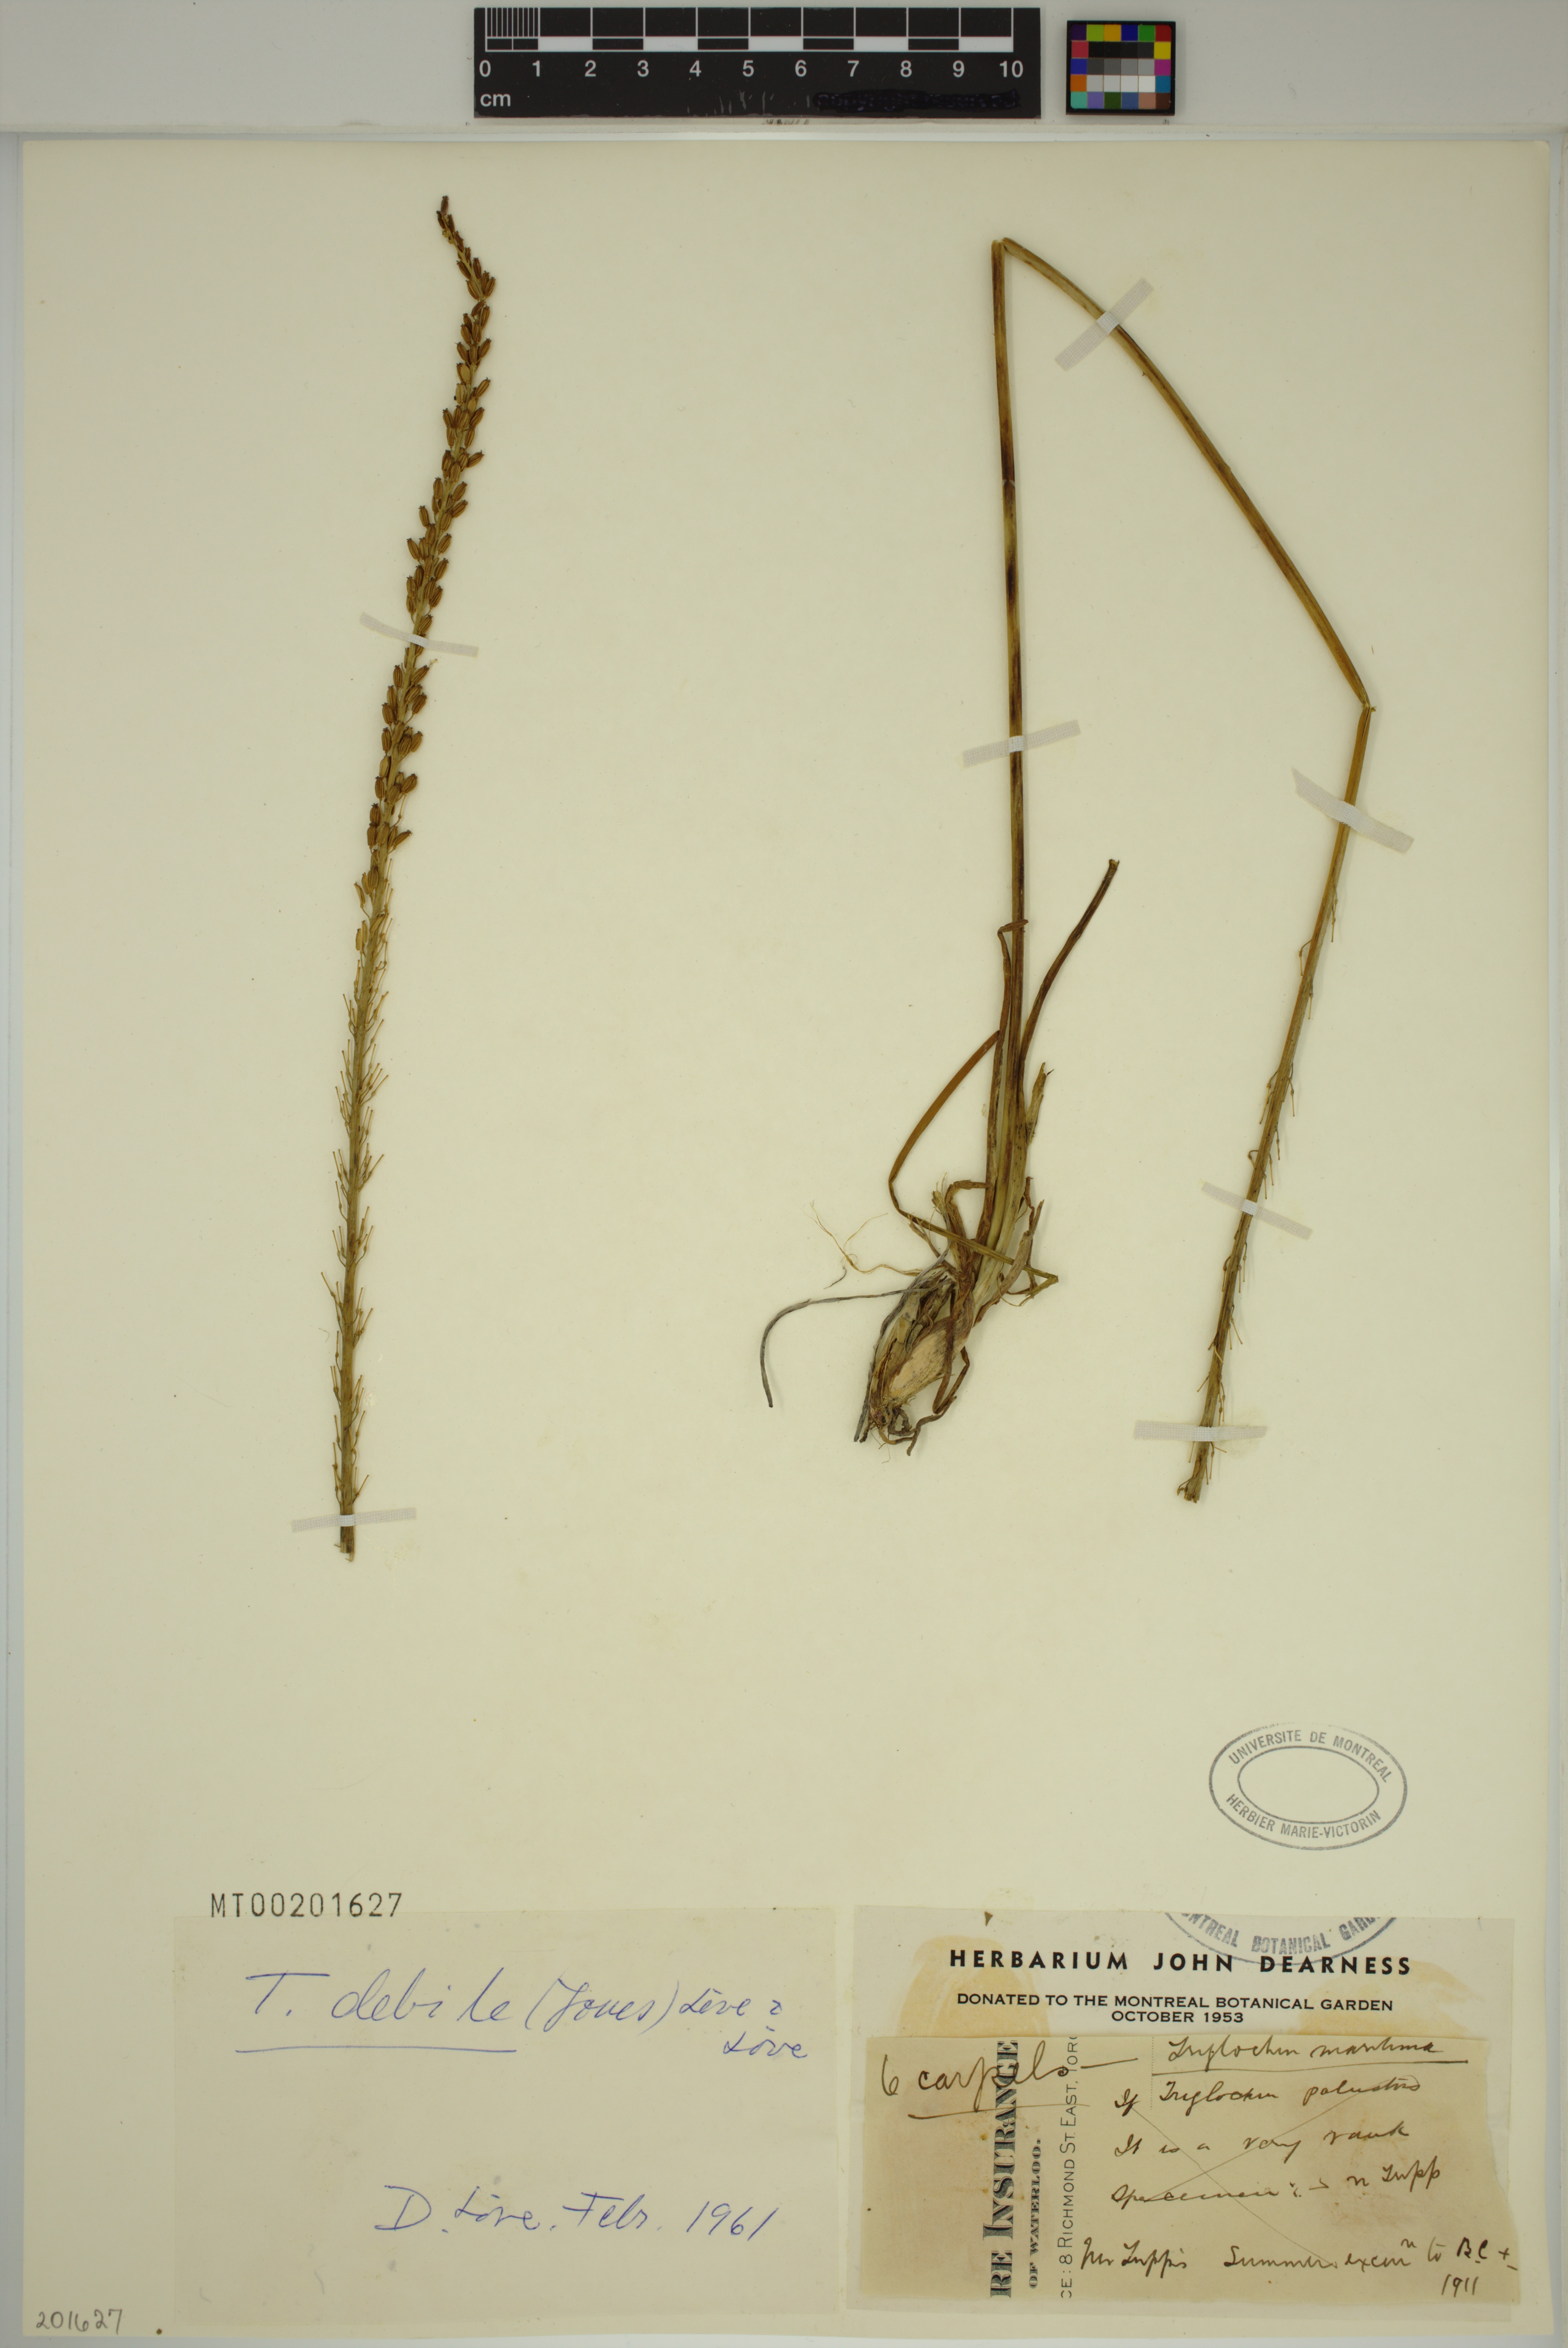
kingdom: Plantae
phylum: Tracheophyta
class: Liliopsida
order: Alismatales
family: Juncaginaceae
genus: Triglochin
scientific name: Triglochin maritima
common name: Sea arrowgrass
